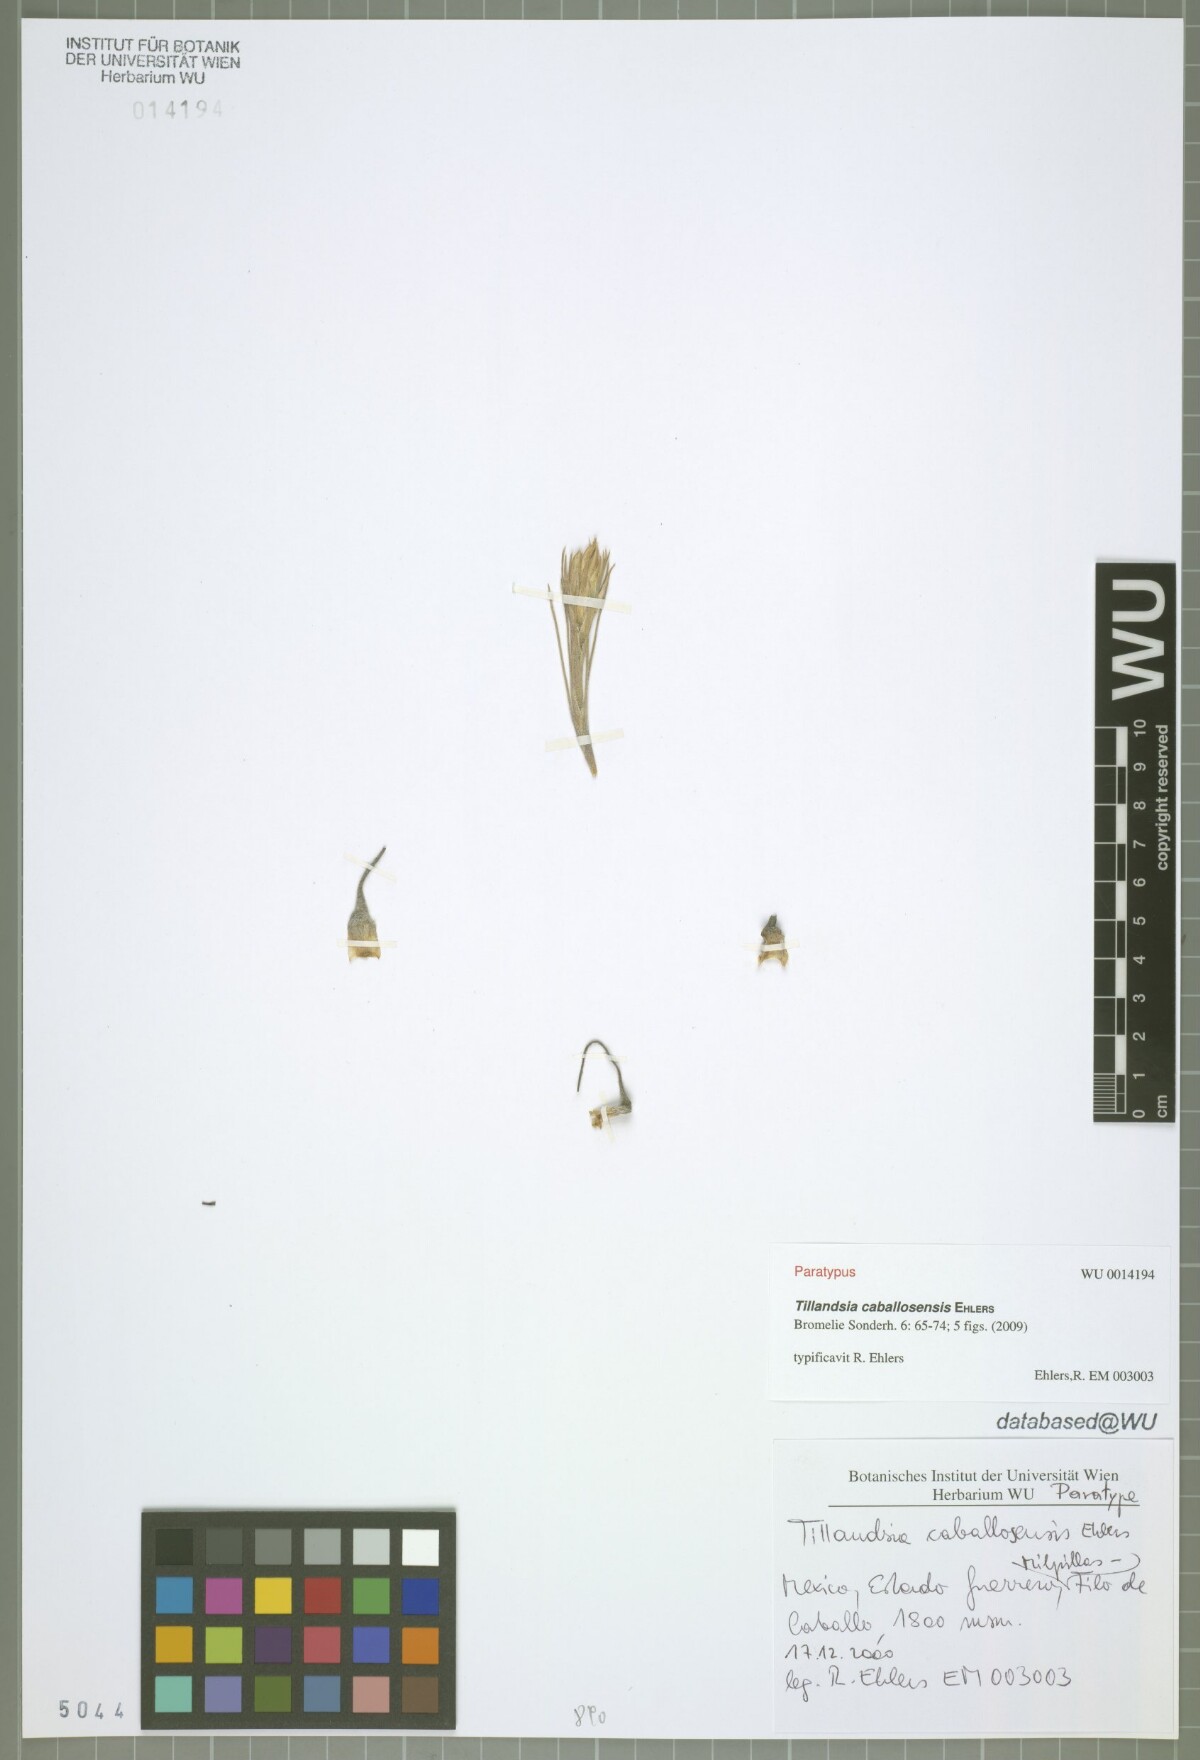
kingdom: Plantae
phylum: Tracheophyta
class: Liliopsida
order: Poales
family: Bromeliaceae
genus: Tillandsia
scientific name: Tillandsia caballosensis
